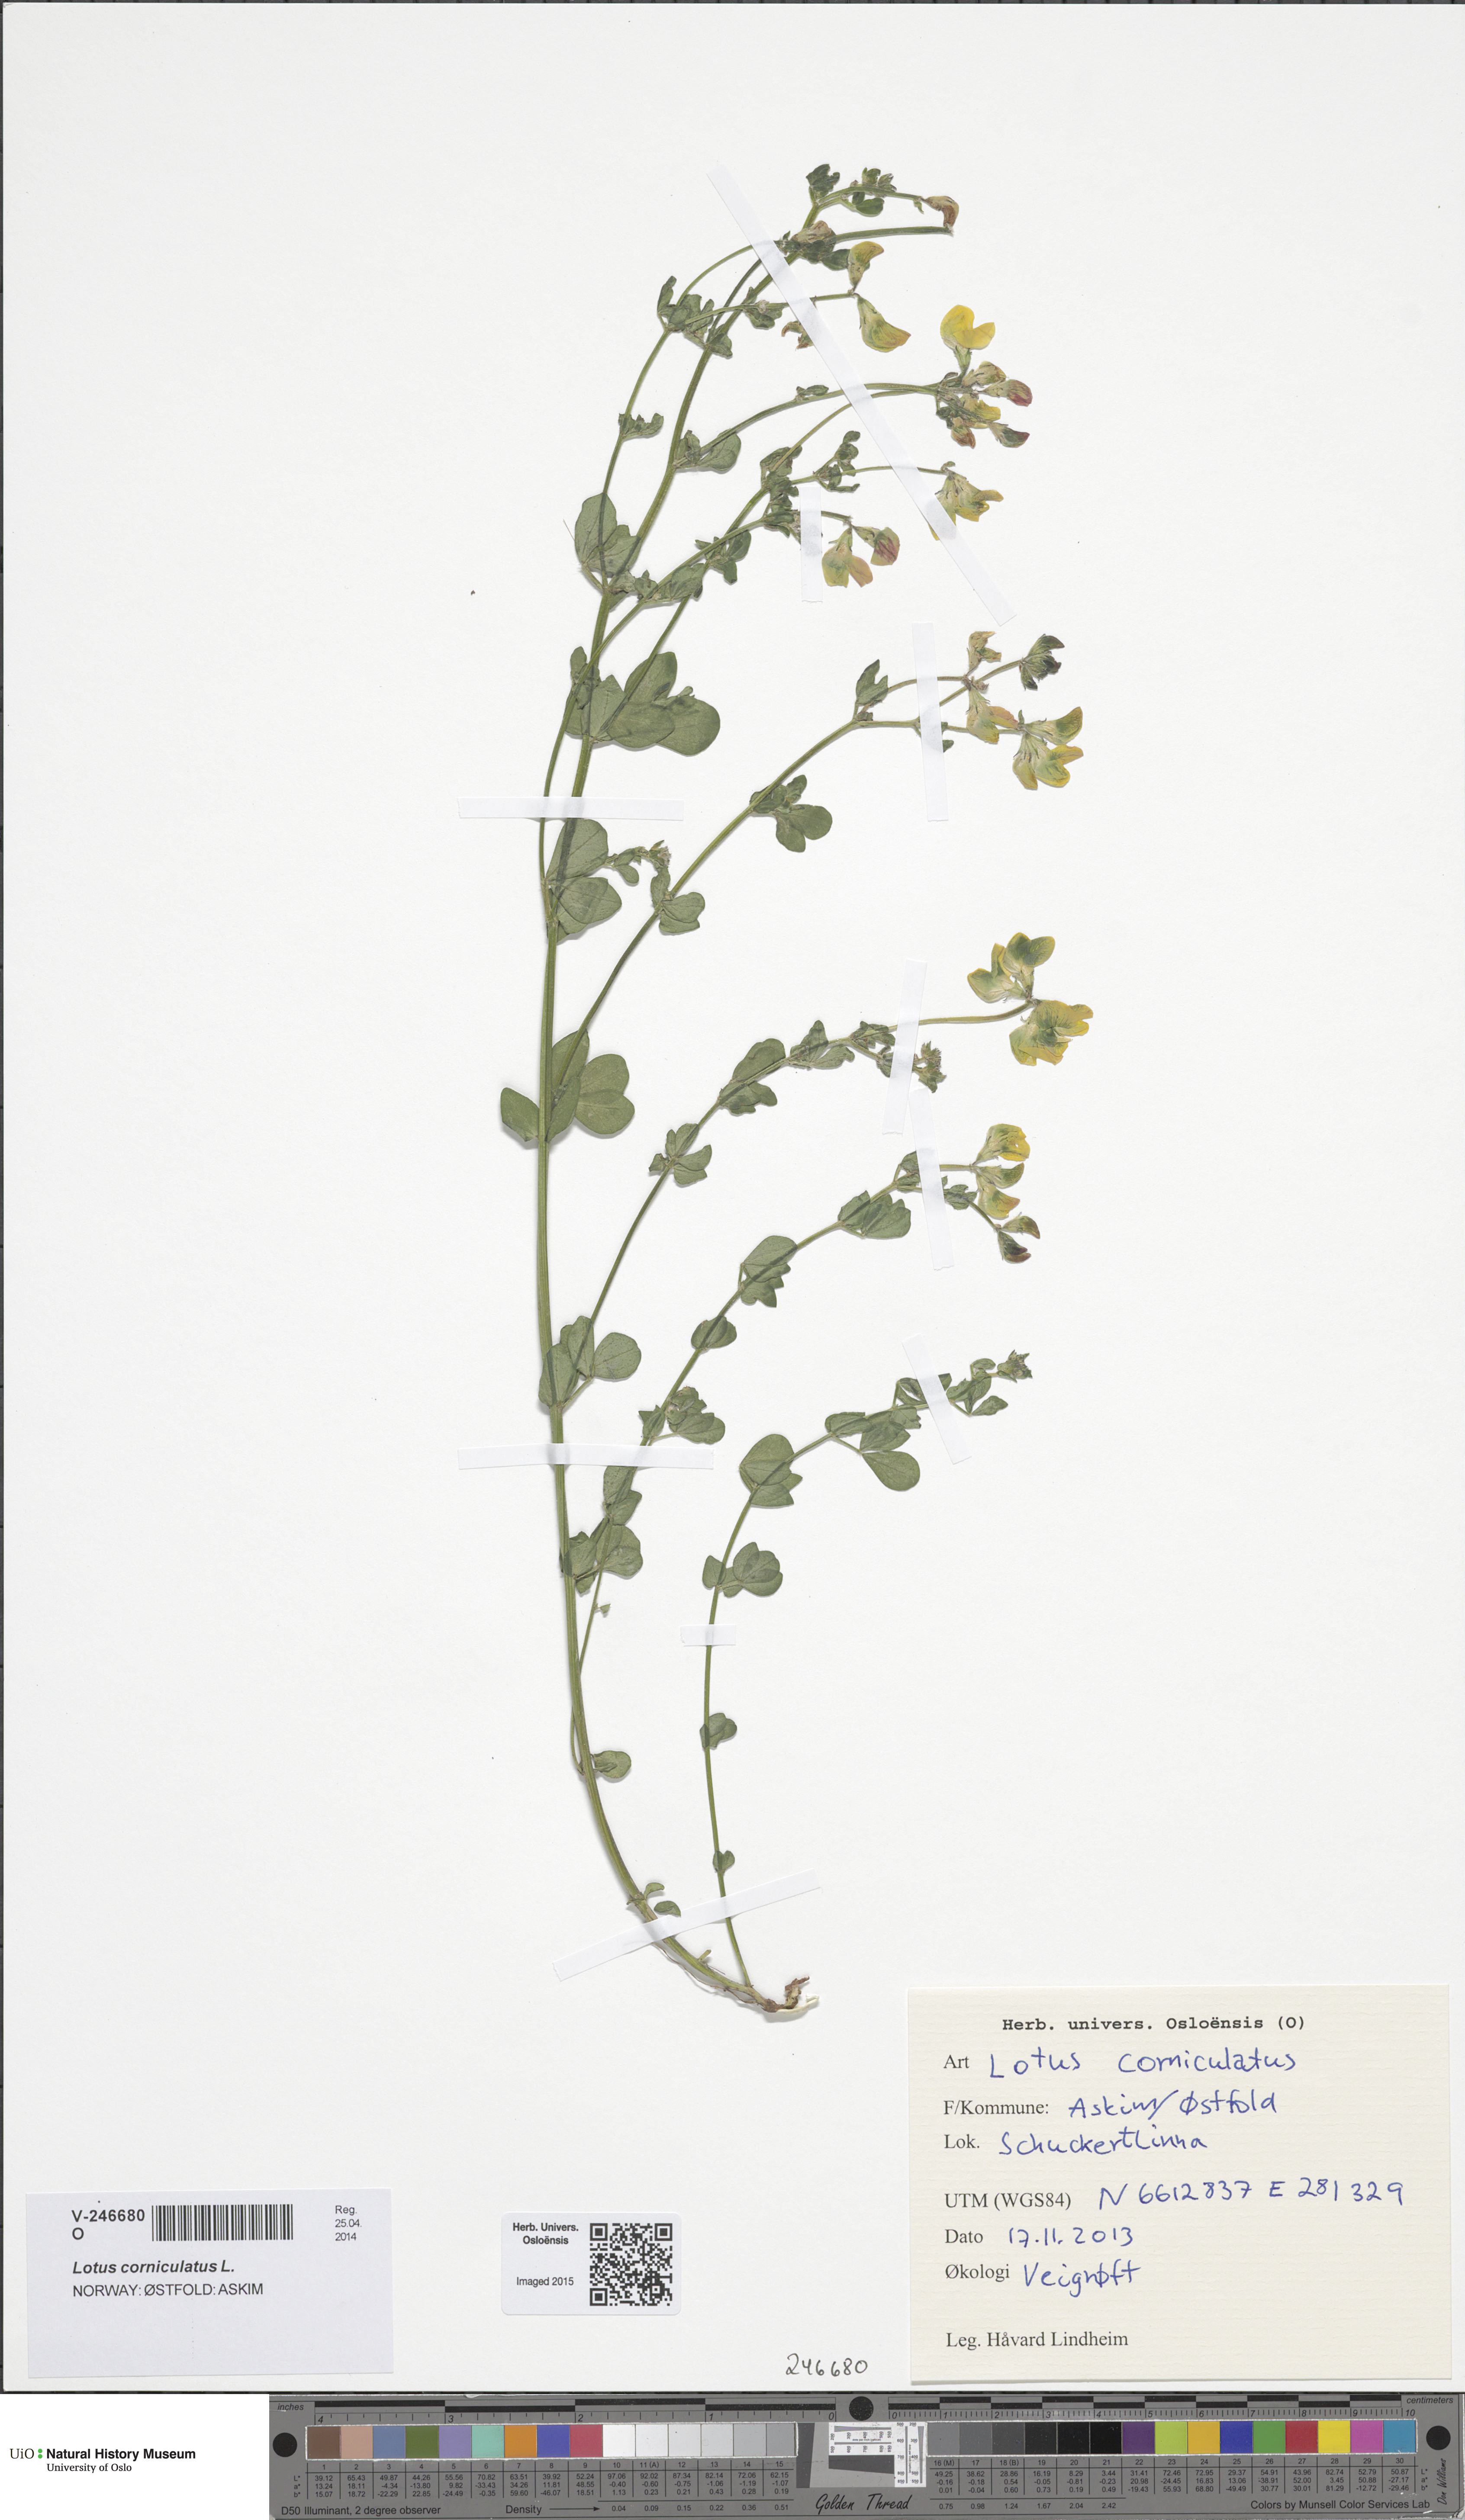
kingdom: Plantae
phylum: Tracheophyta
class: Magnoliopsida
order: Fabales
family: Fabaceae
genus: Lotus
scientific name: Lotus corniculatus
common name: Common bird's-foot-trefoil
